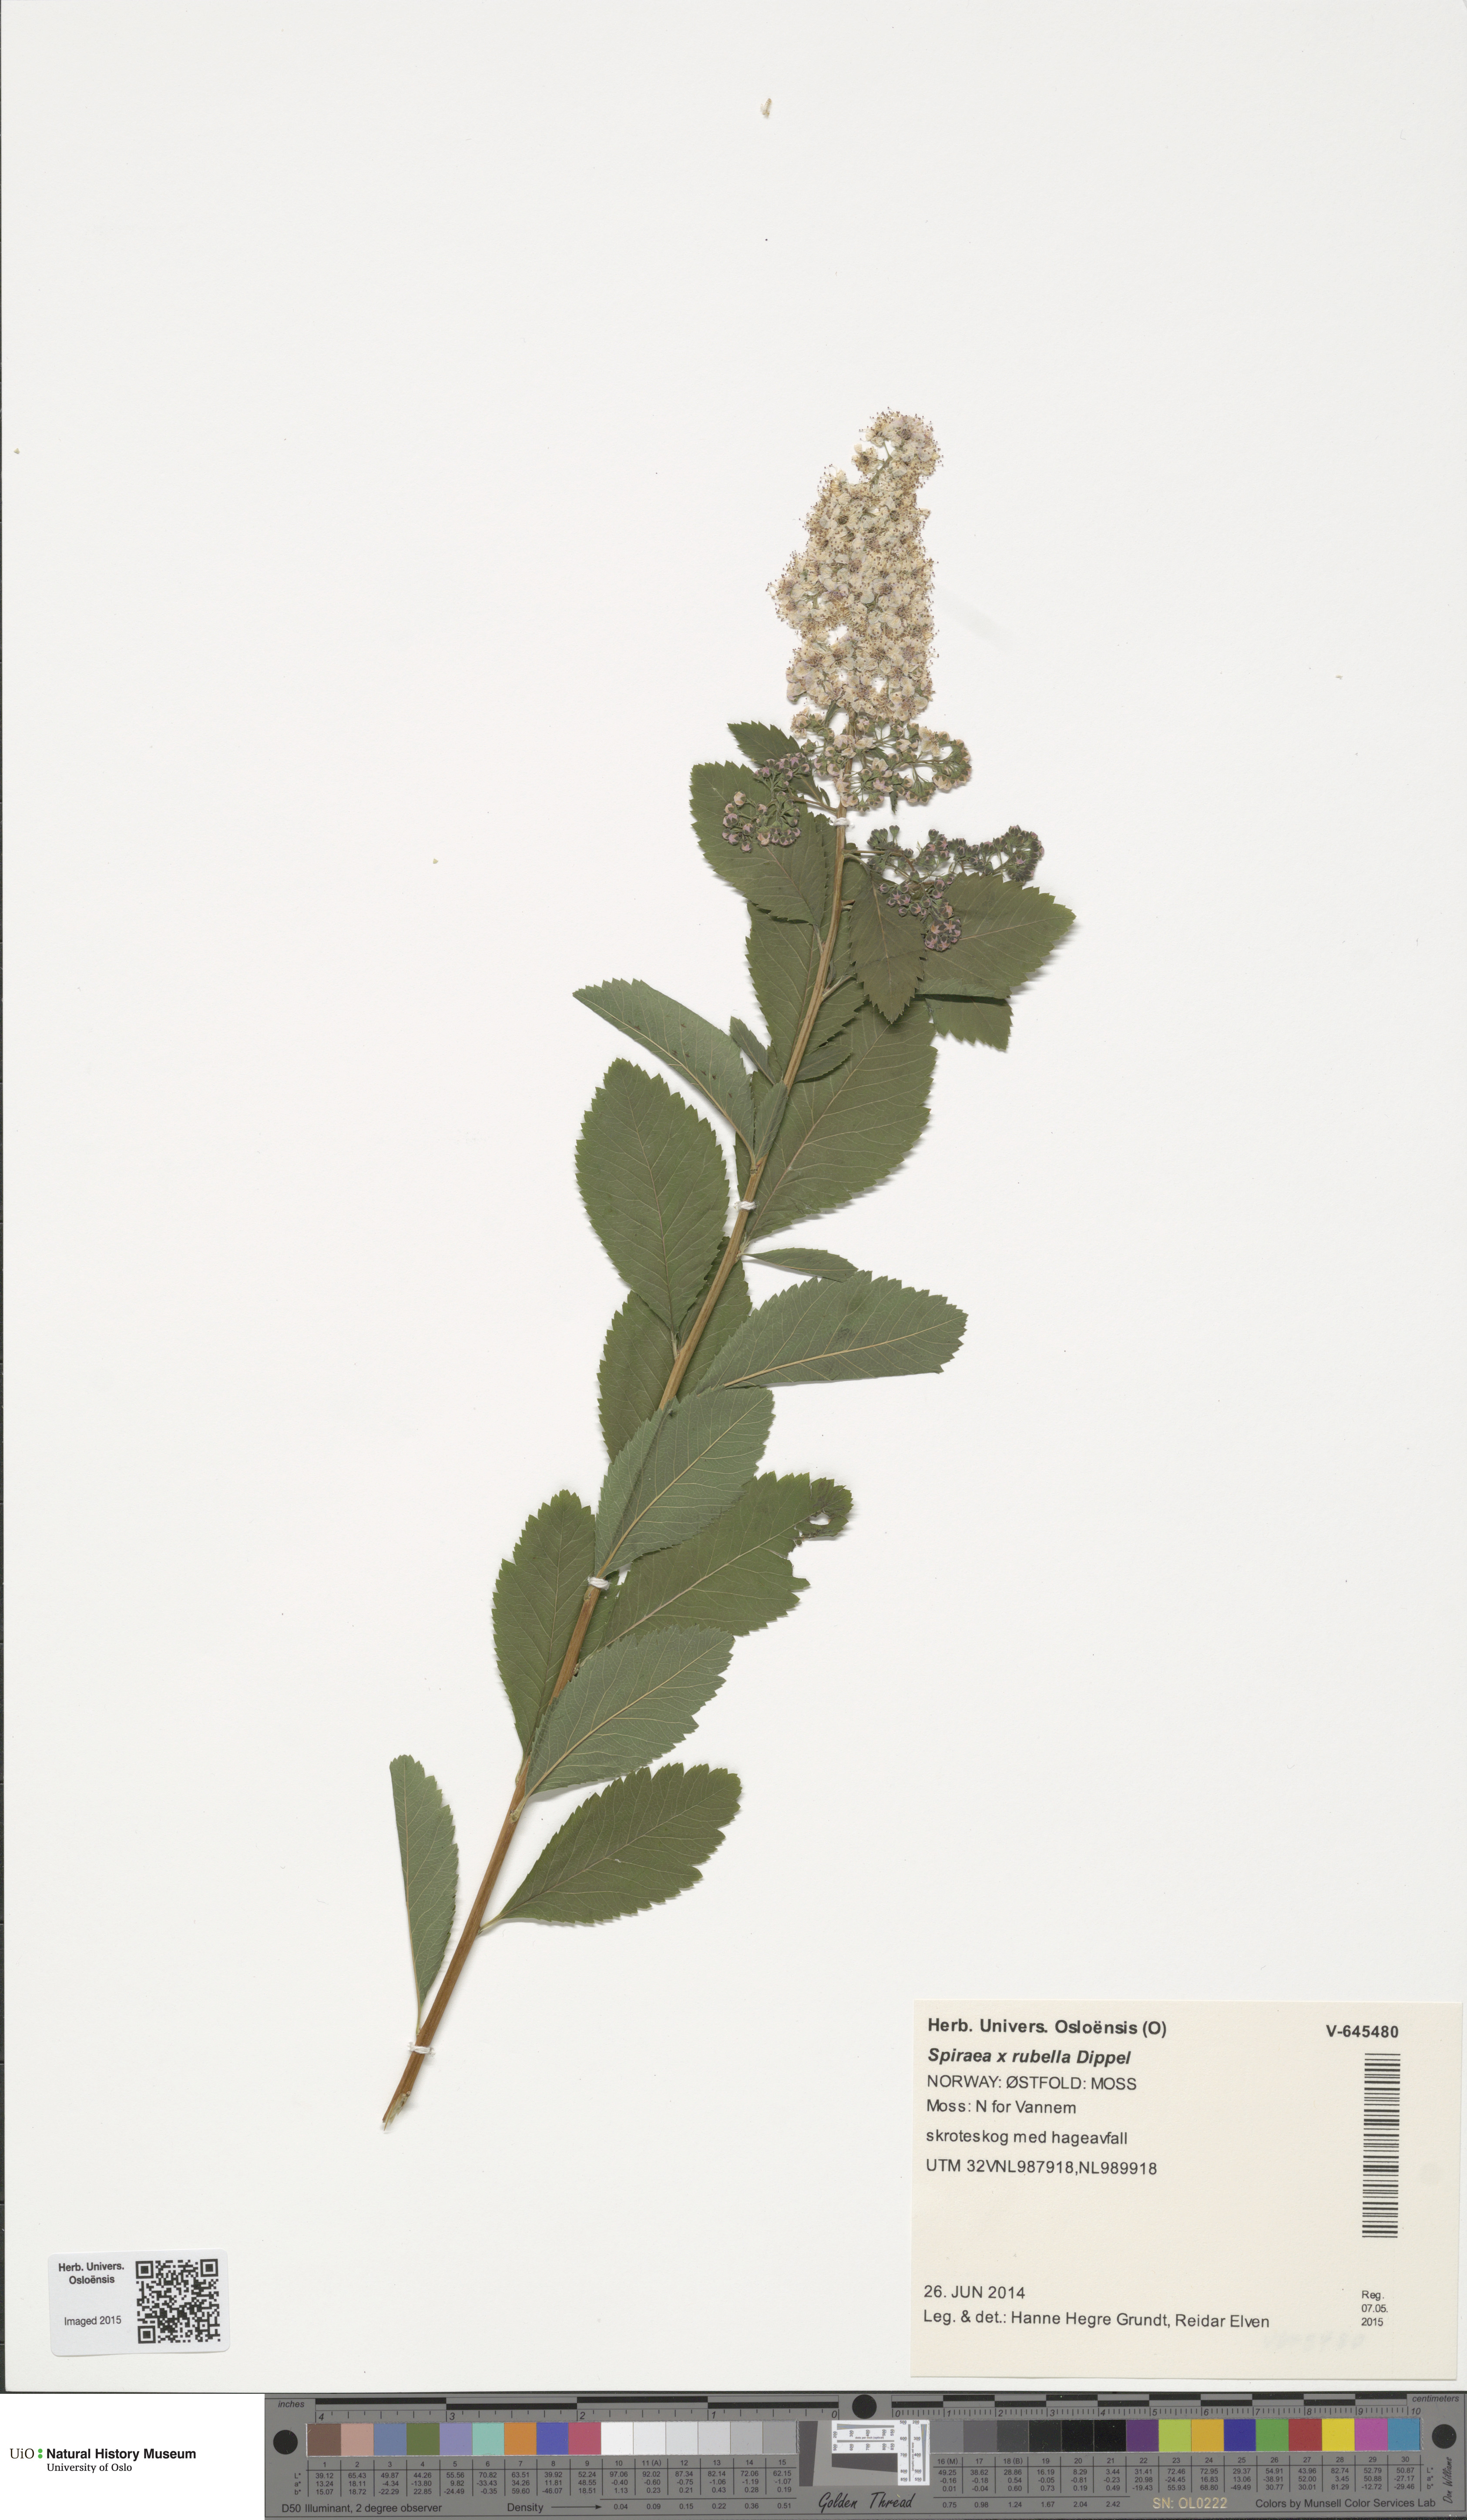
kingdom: Plantae
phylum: Tracheophyta
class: Magnoliopsida
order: Rosales
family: Rosaceae
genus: Spiraea
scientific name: Spiraea rosalba
